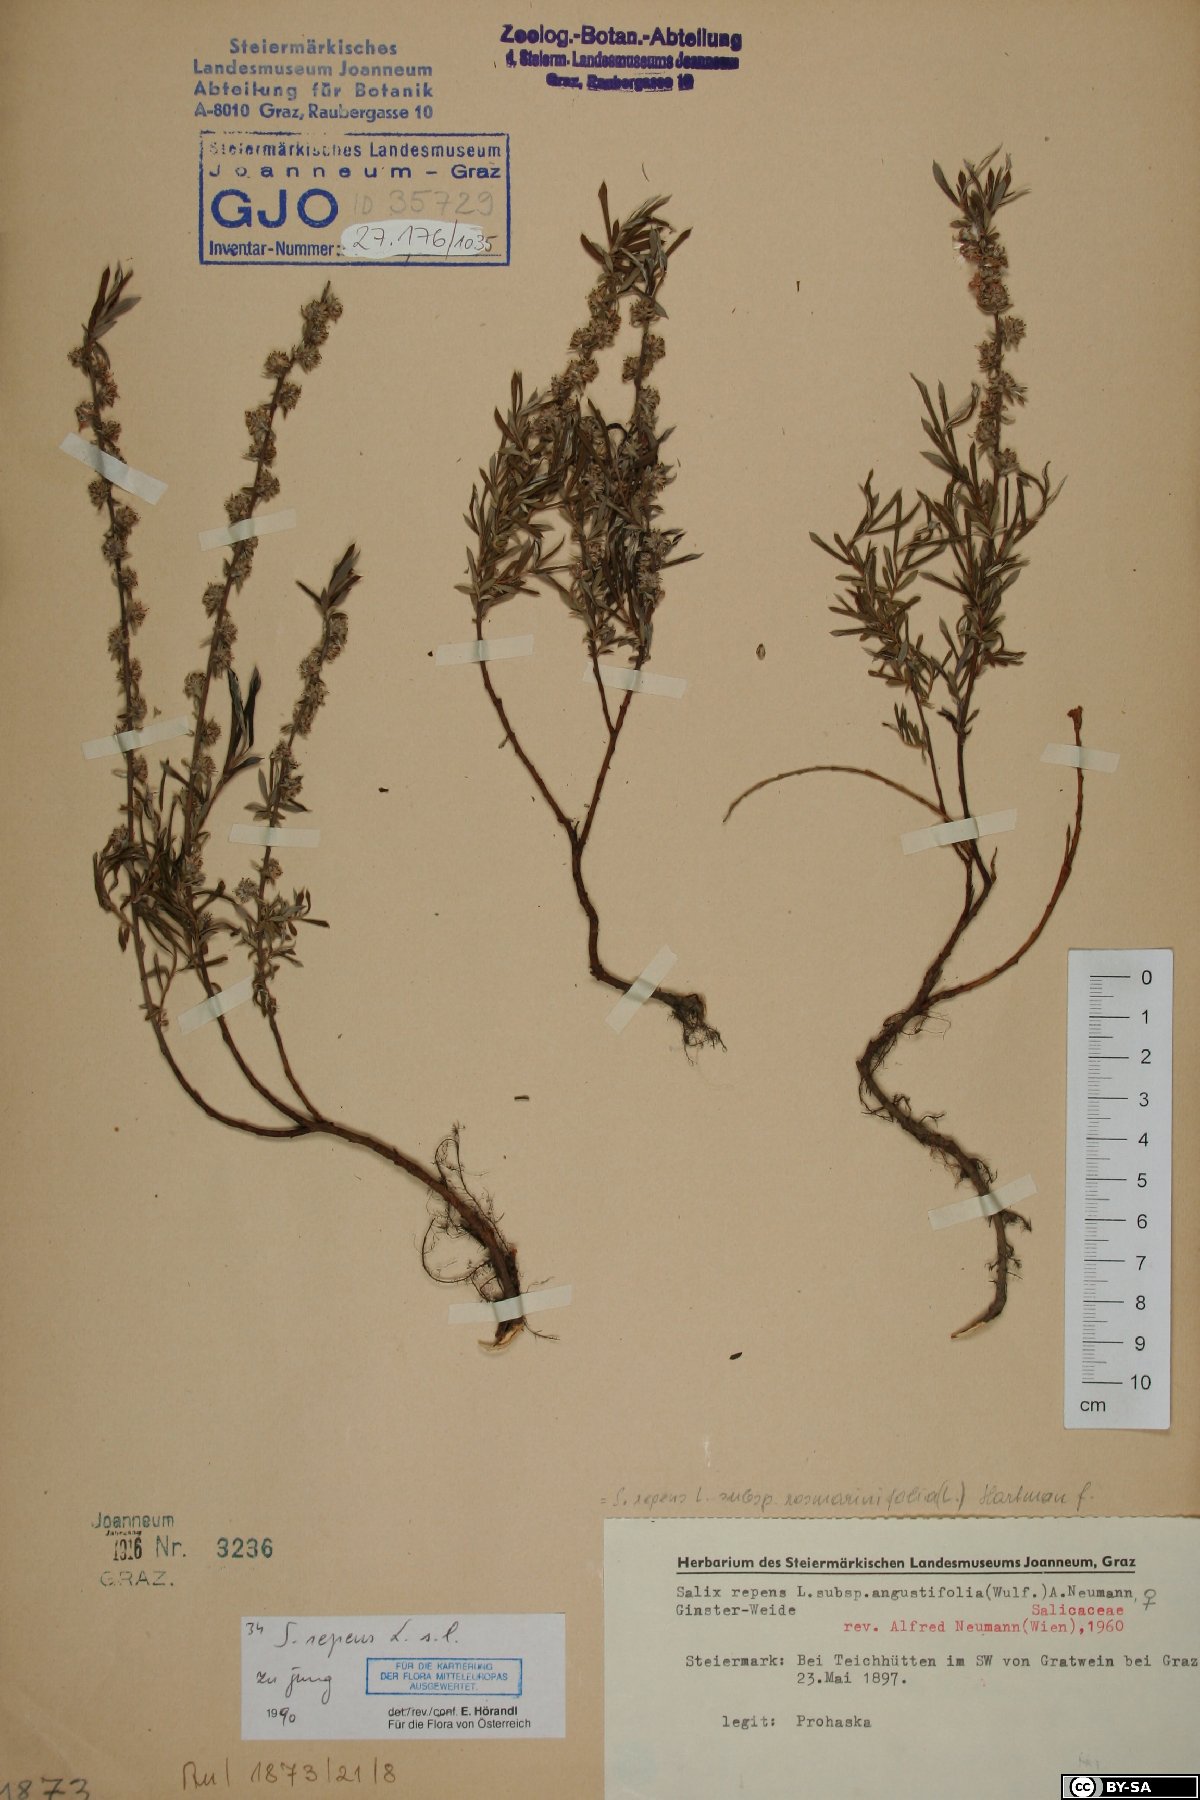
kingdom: Plantae
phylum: Tracheophyta
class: Magnoliopsida
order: Malpighiales
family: Salicaceae
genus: Salix
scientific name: Salix repens
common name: Creeping willow
